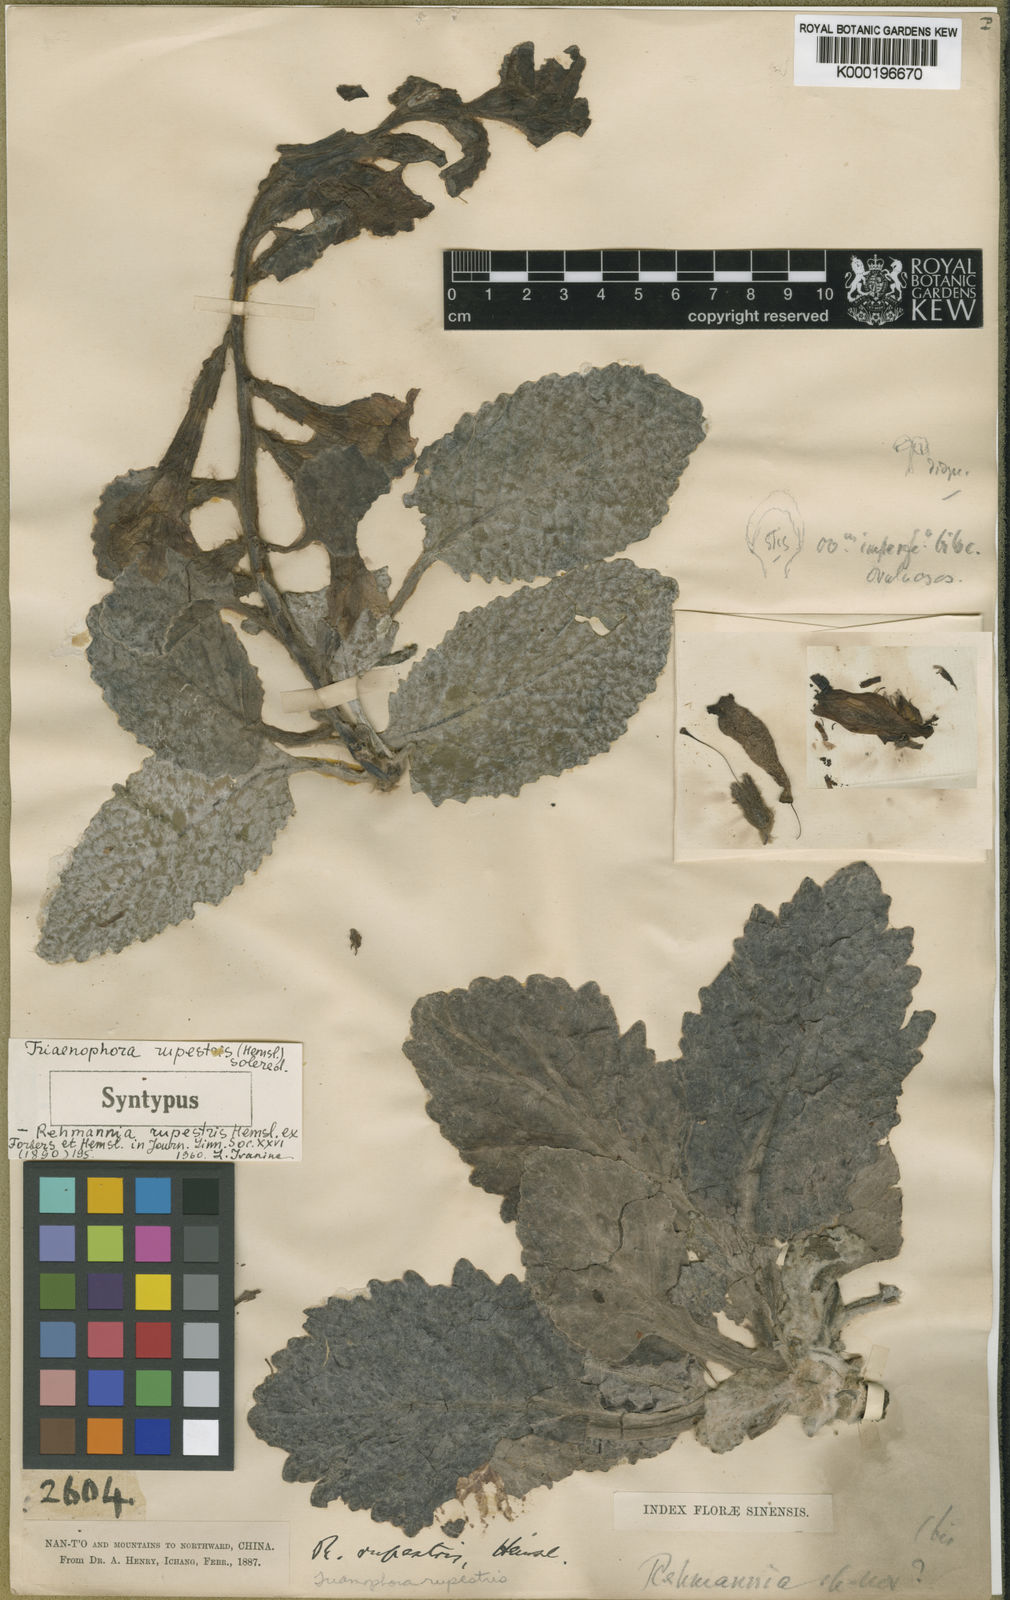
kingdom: Plantae
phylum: Tracheophyta
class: Magnoliopsida
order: Lamiales
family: Rehmanniaceae
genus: Triaenophora
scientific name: Triaenophora rupestris
